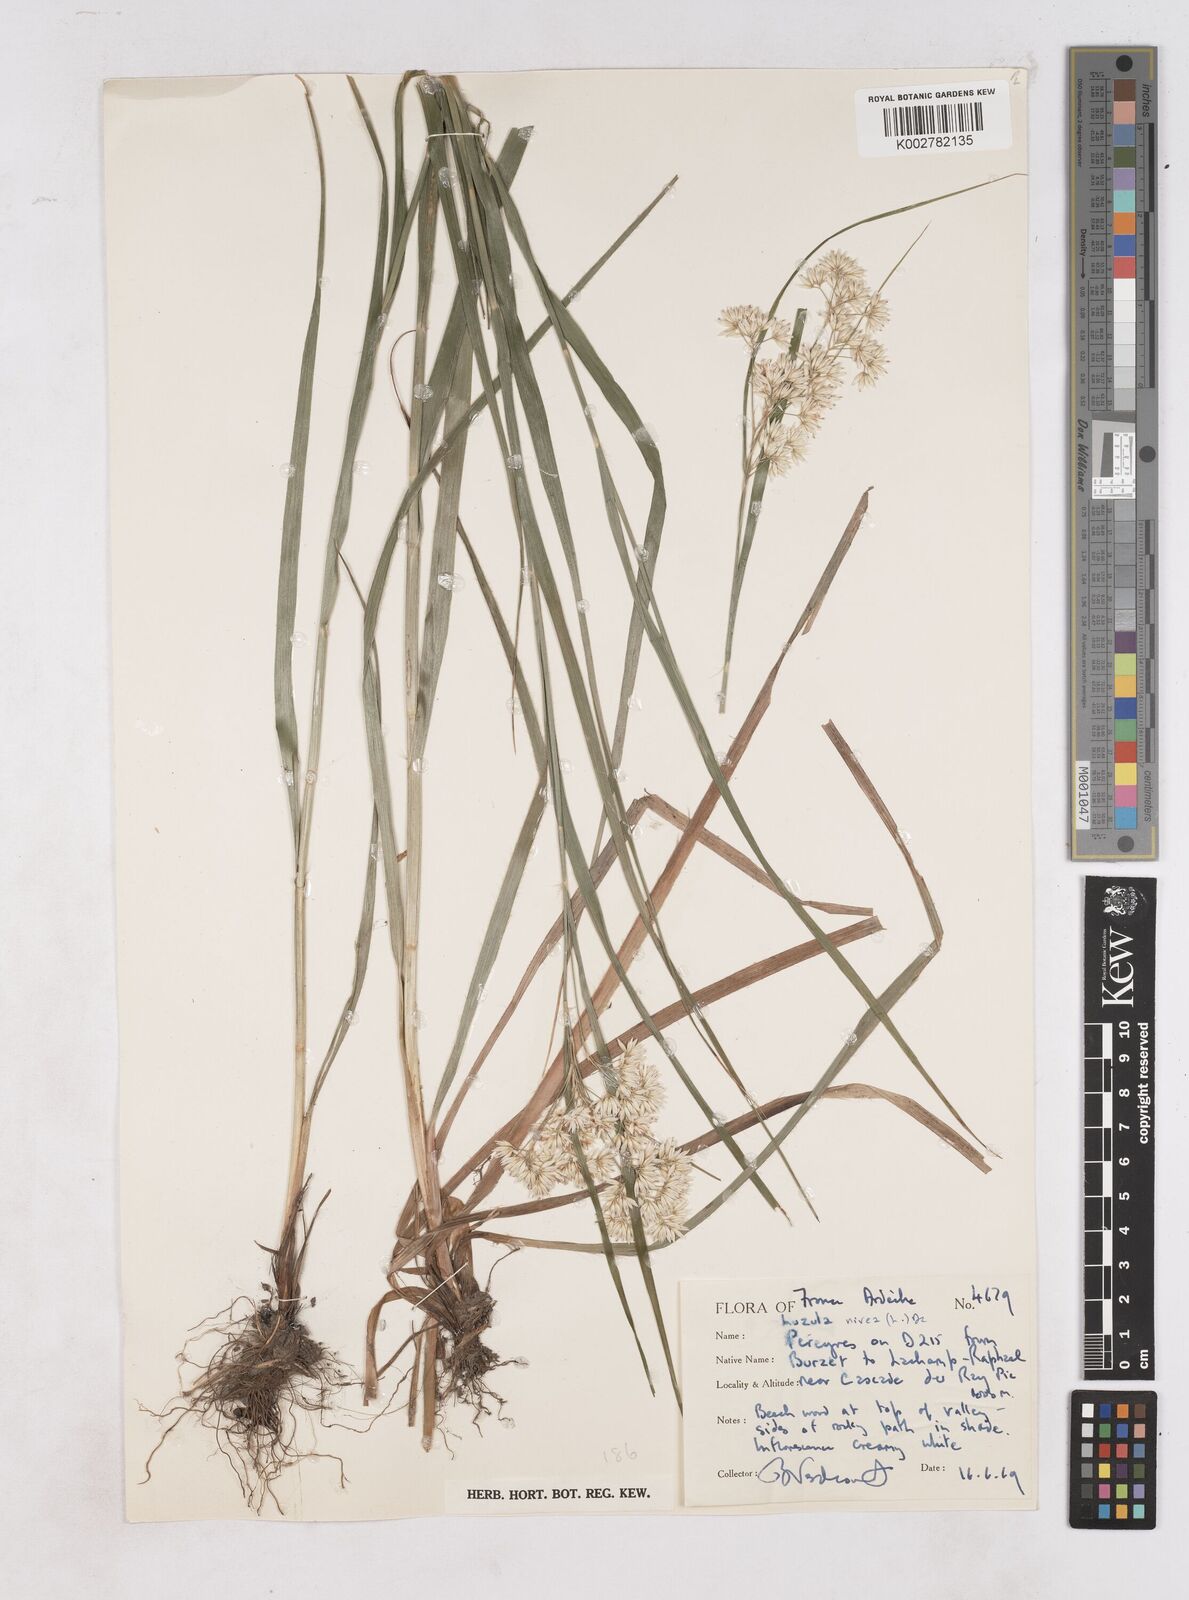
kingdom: Plantae
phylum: Tracheophyta
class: Liliopsida
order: Poales
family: Juncaceae
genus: Luzula
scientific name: Luzula nivea
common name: Snow-white wood-rush
